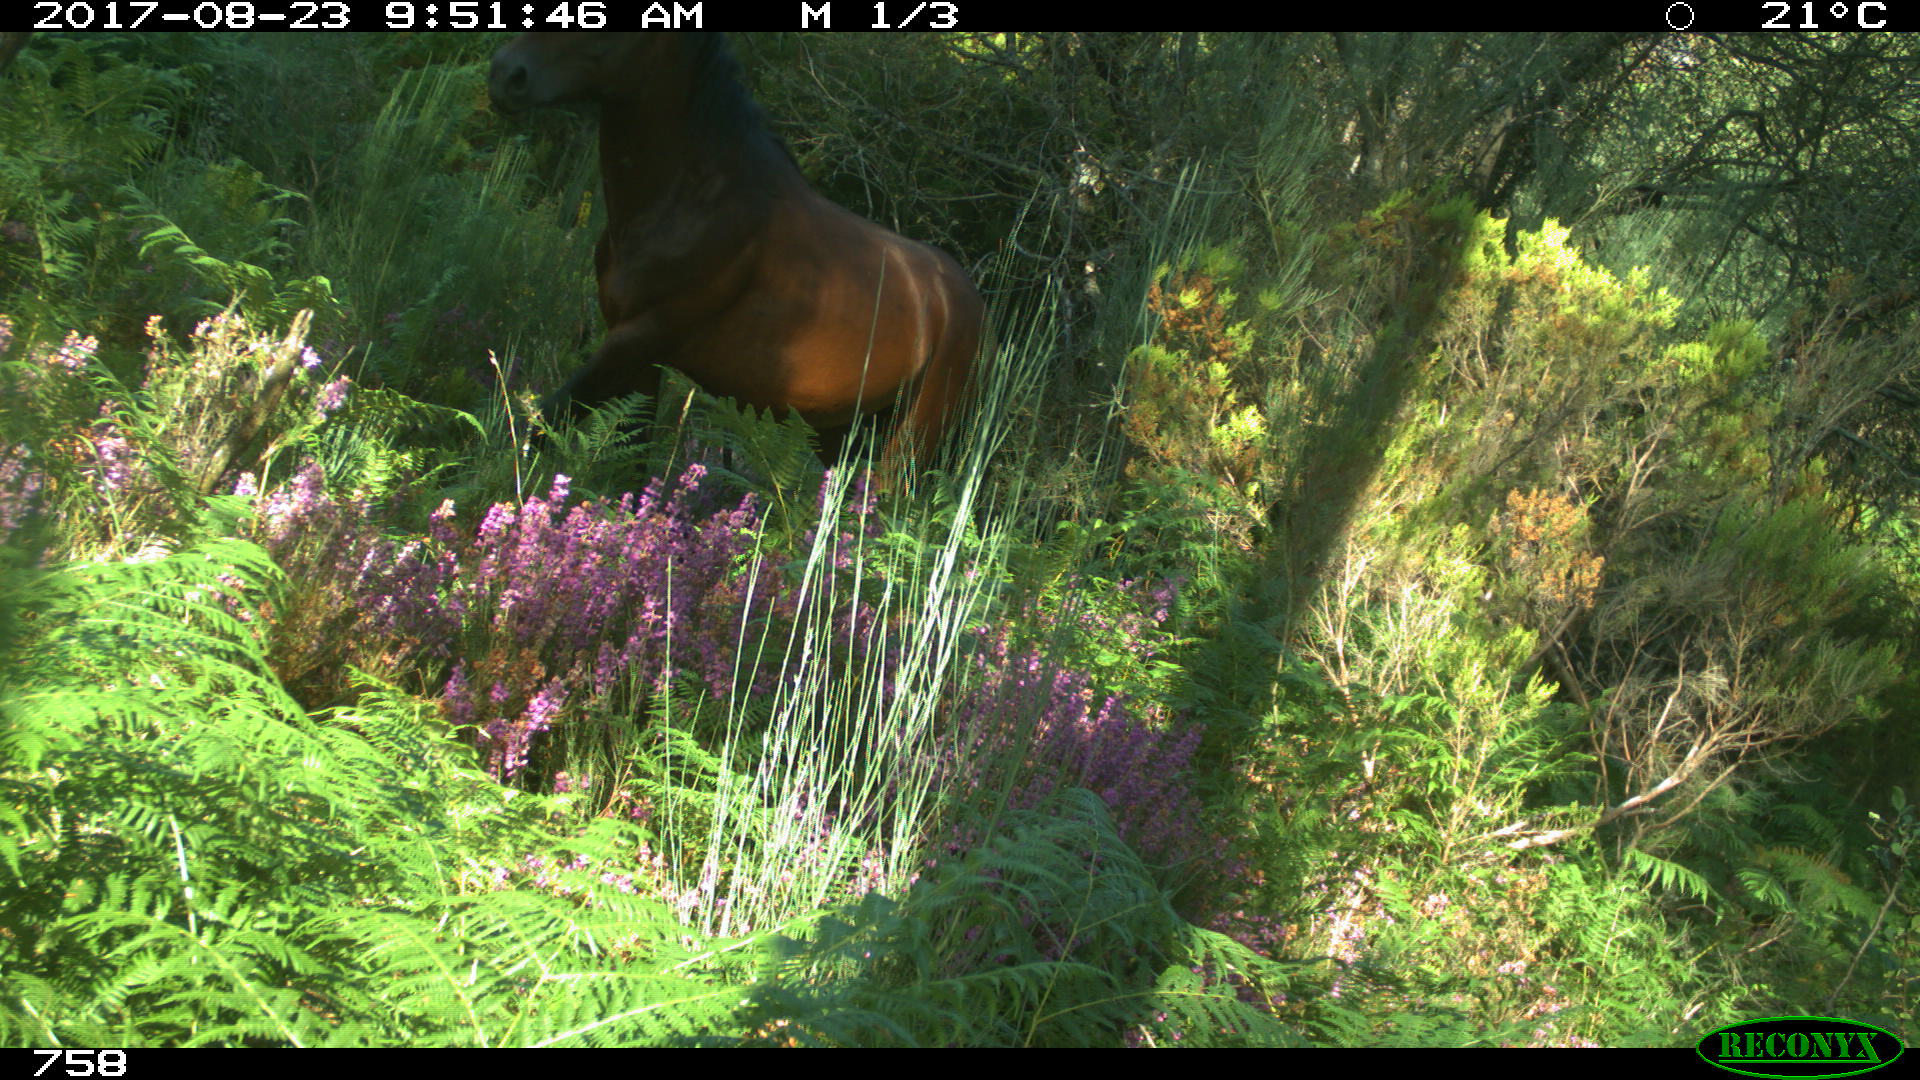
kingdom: Animalia
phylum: Chordata
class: Mammalia
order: Perissodactyla
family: Equidae
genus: Equus
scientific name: Equus caballus
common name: Horse
